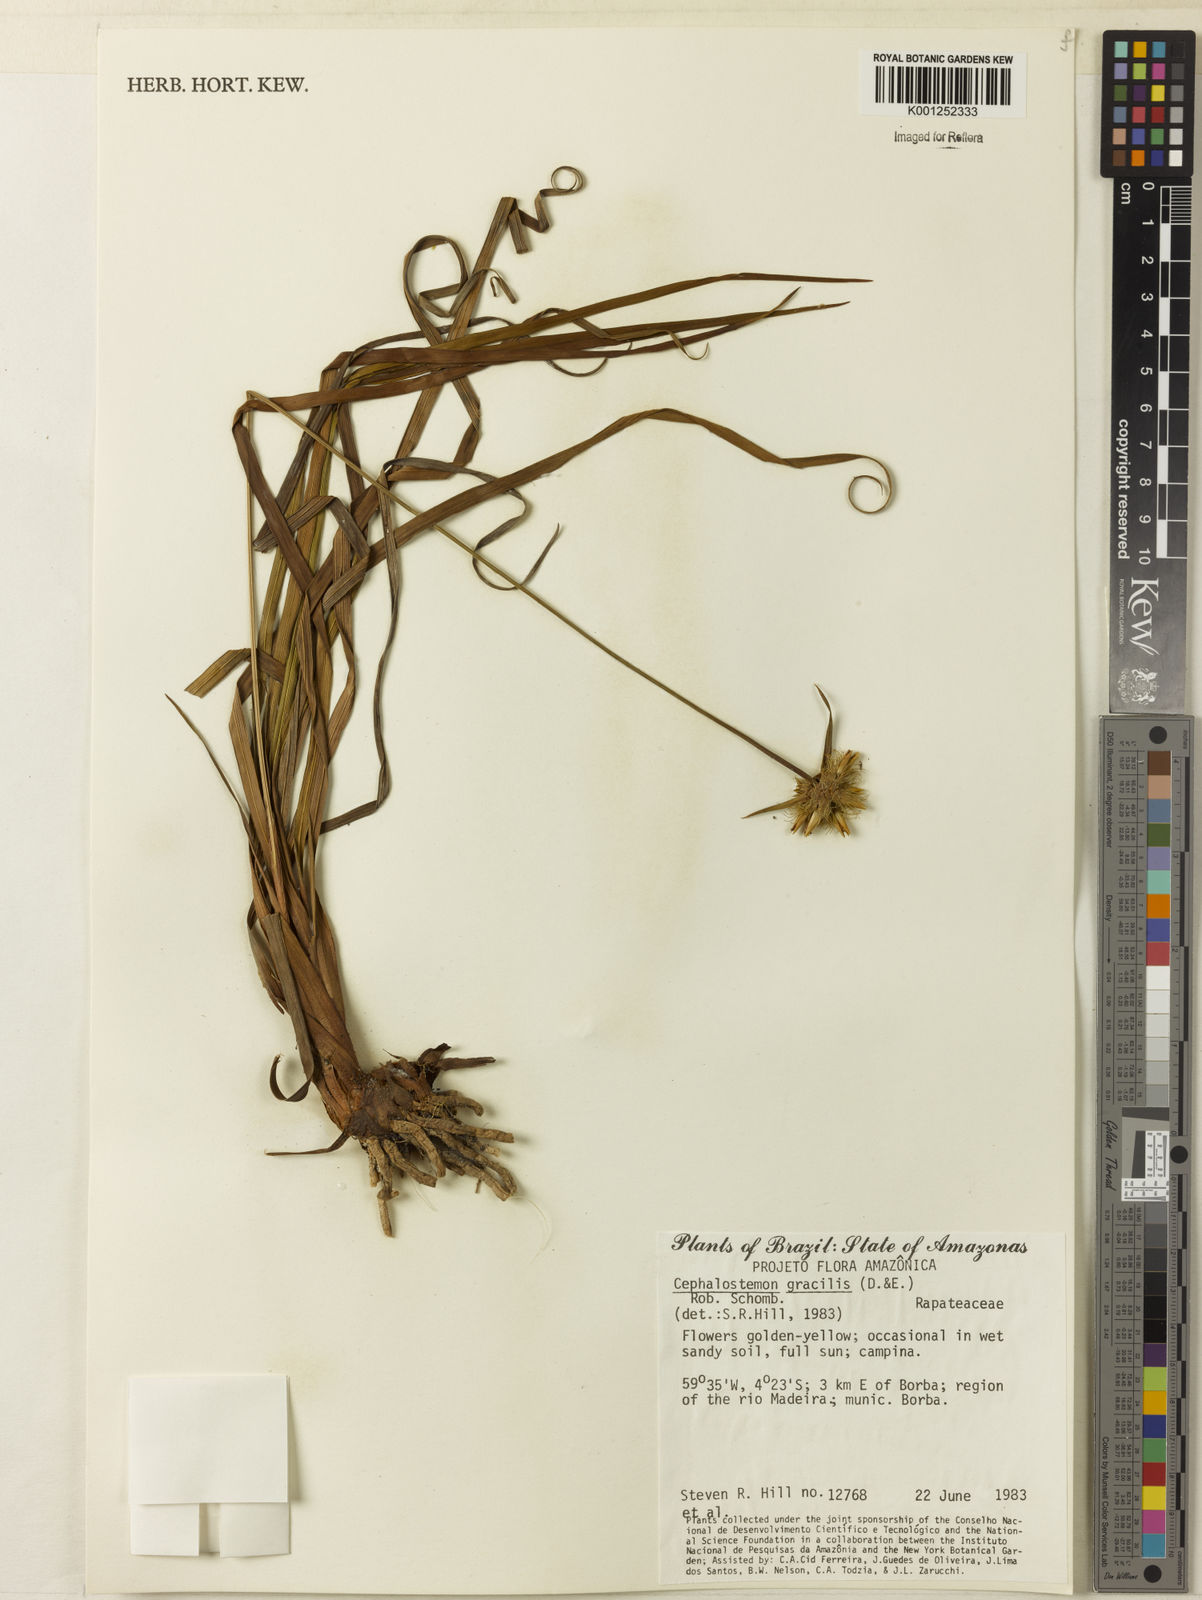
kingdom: Plantae
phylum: Tracheophyta
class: Liliopsida
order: Poales
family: Rapateaceae
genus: Cephalostemon
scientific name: Cephalostemon gracilis
